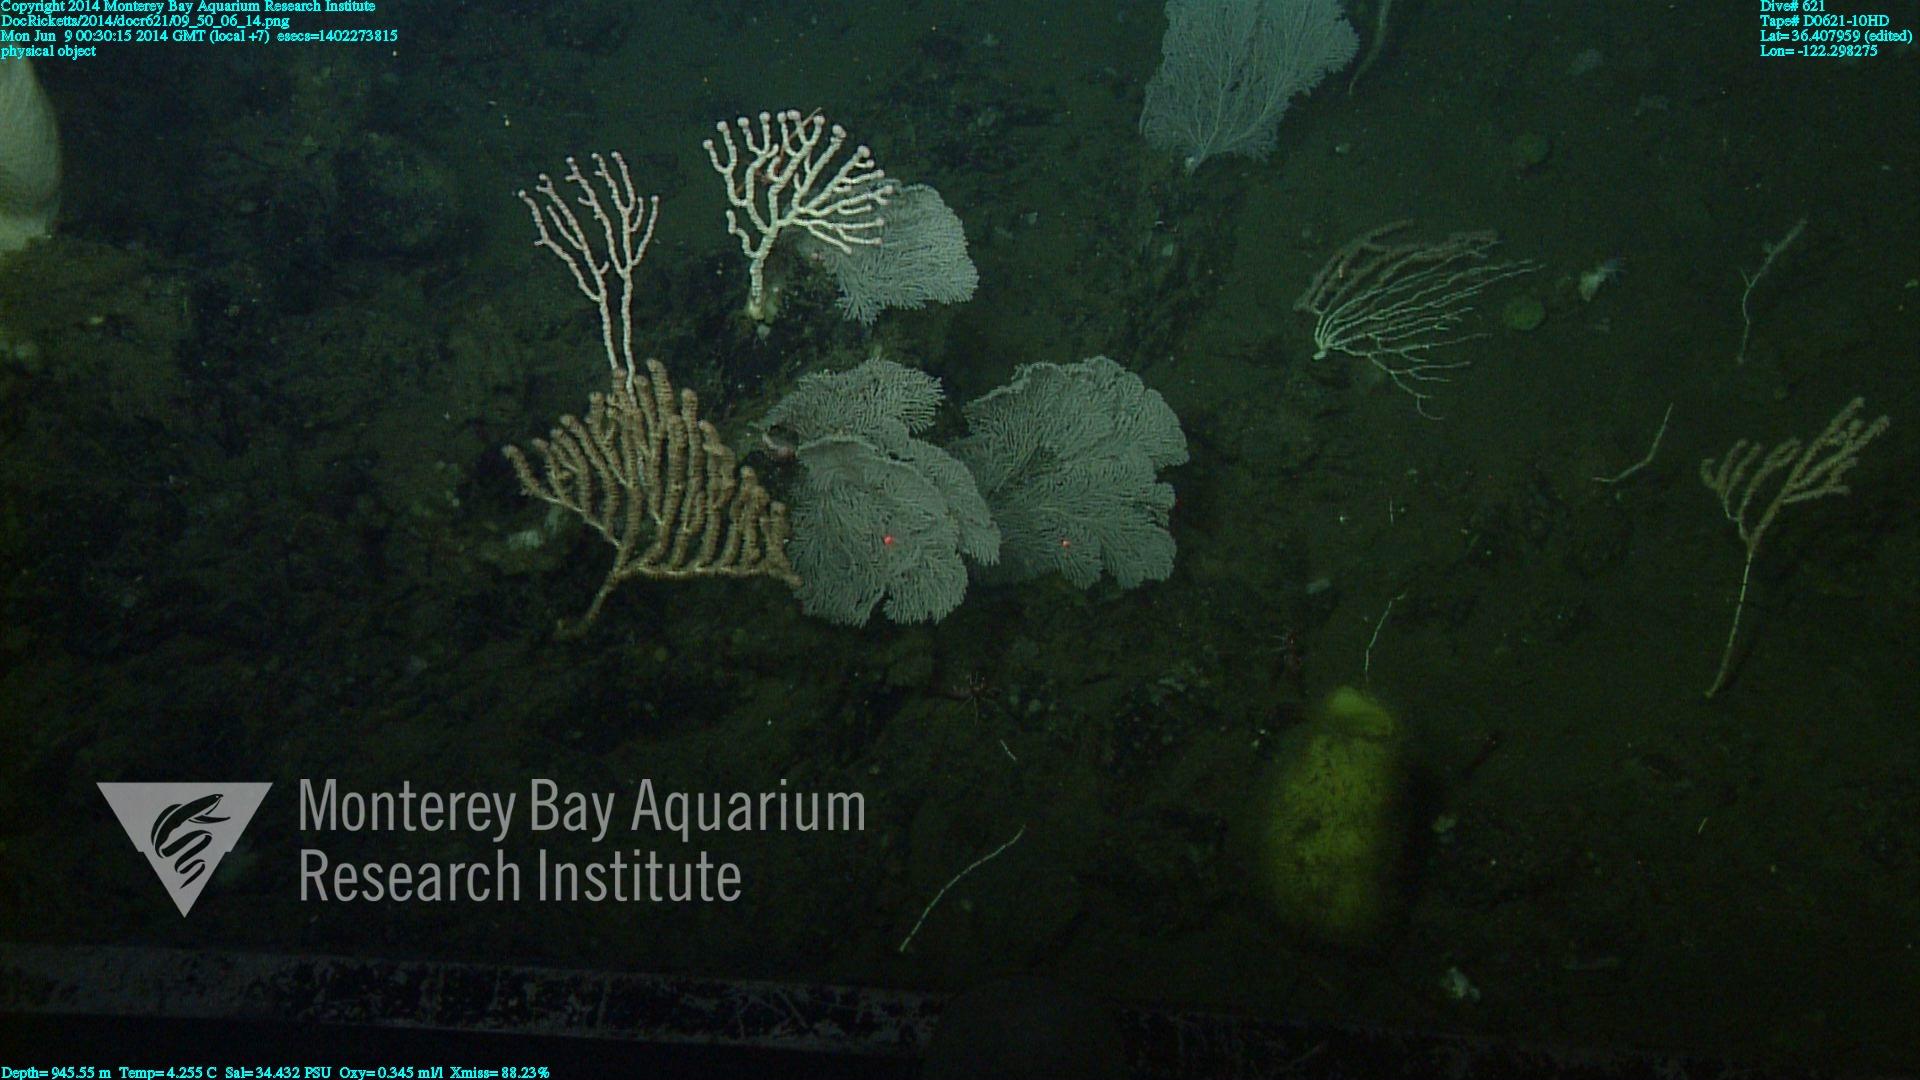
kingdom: Animalia
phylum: Cnidaria
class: Anthozoa
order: Scleralcyonacea
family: Primnoidae
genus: Parastenella
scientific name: Parastenella
